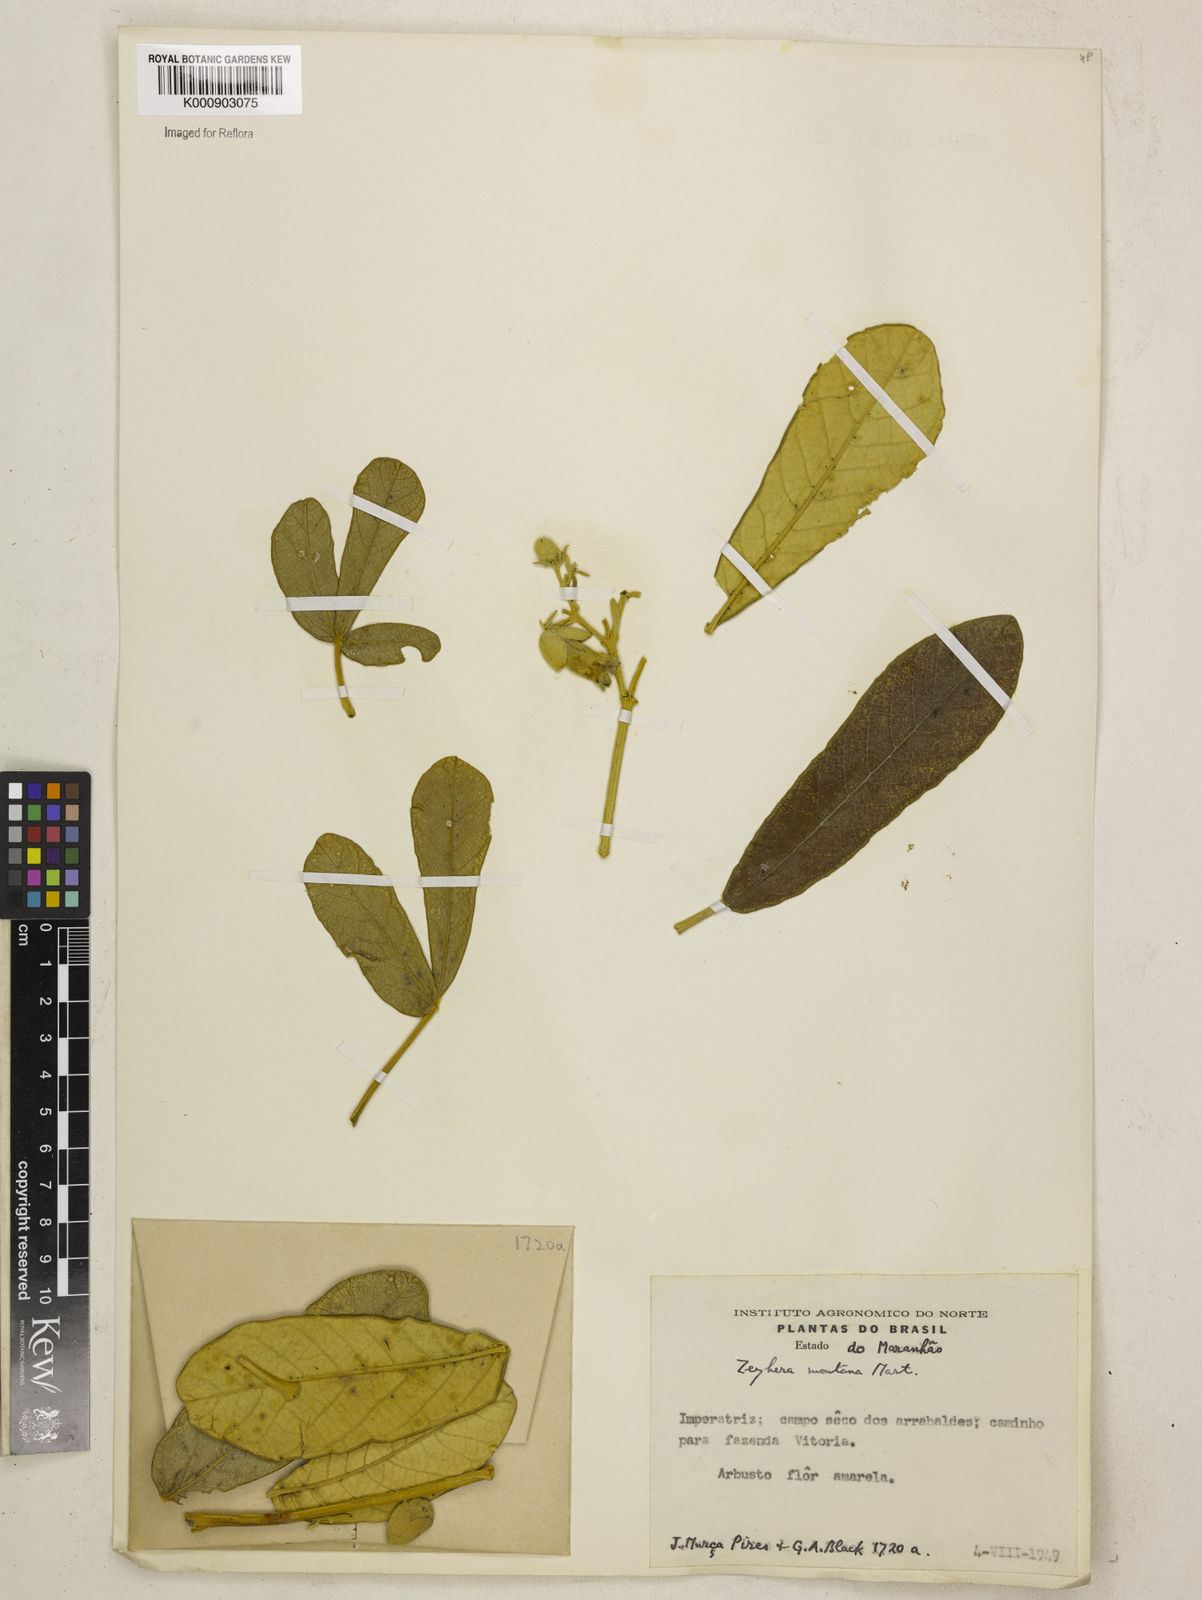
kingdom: Plantae
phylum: Tracheophyta
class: Magnoliopsida
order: Lamiales
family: Bignoniaceae
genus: Zeyheria
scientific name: Zeyheria
